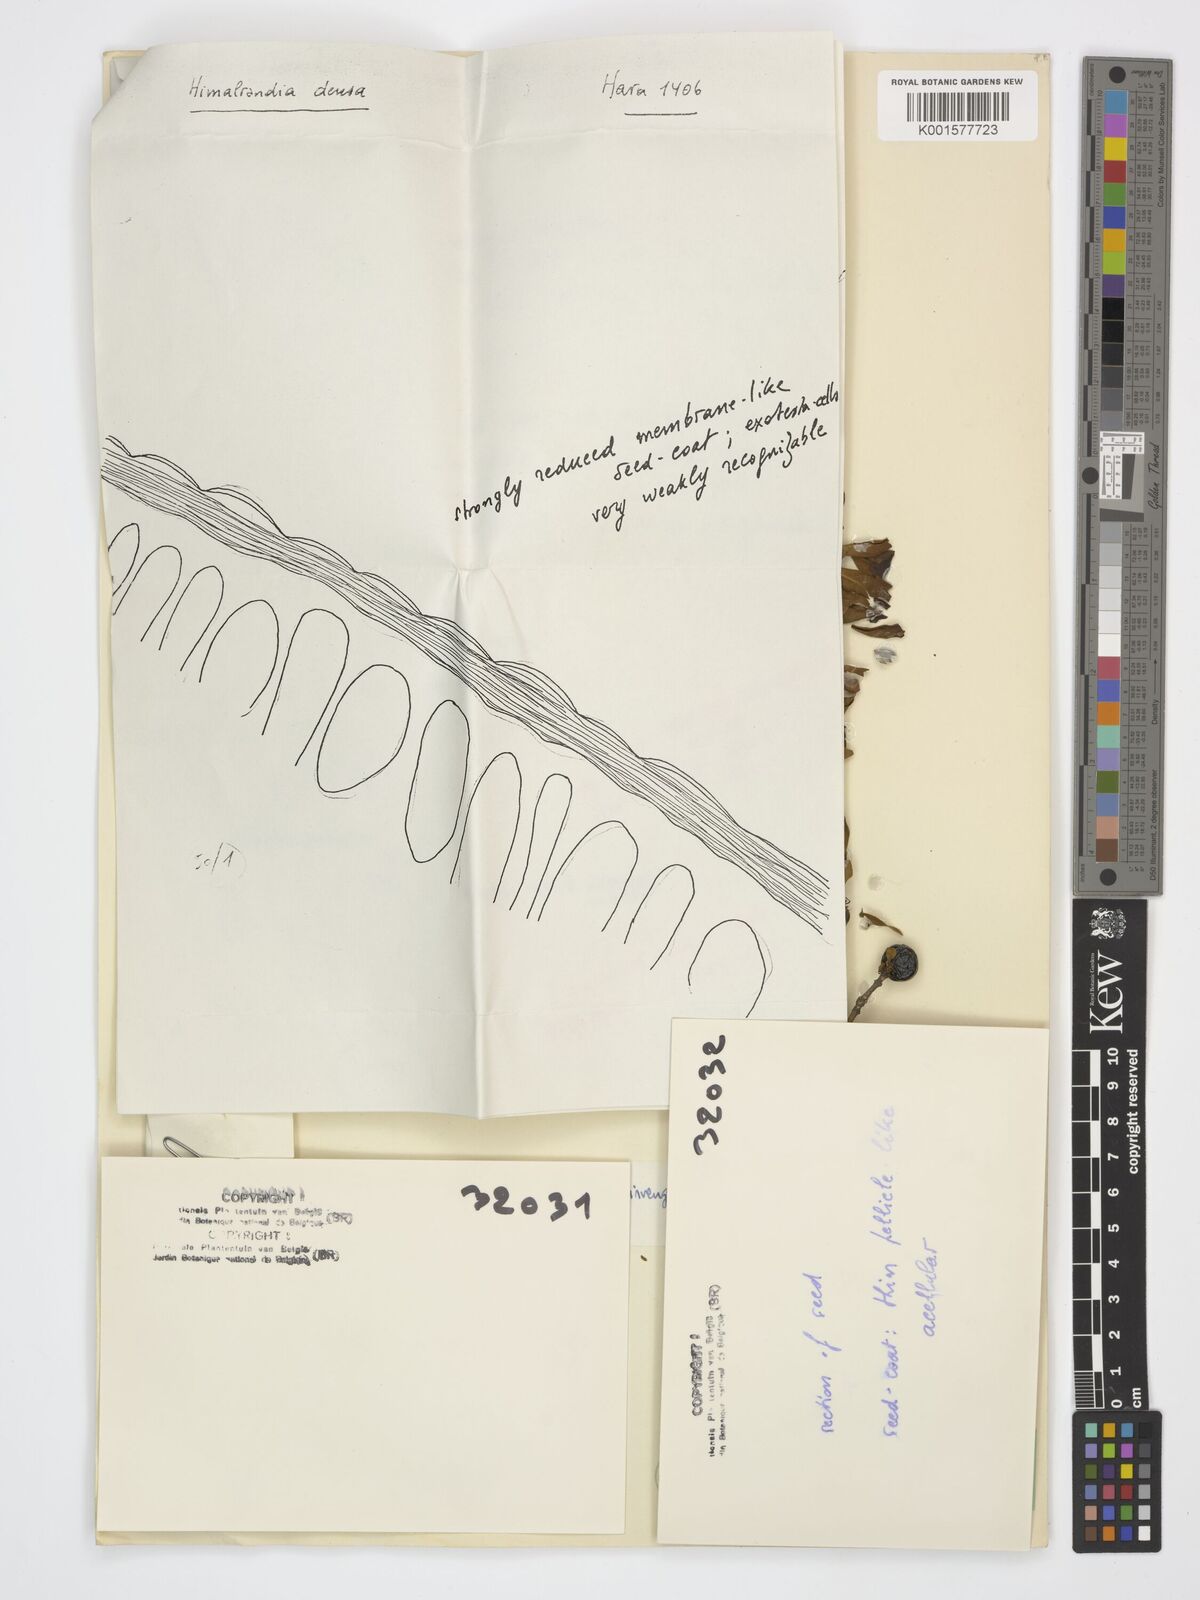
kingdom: Plantae
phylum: Tracheophyta
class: Magnoliopsida
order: Gentianales
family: Rubiaceae
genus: Himalrandia
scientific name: Himalrandia tetrasperma
